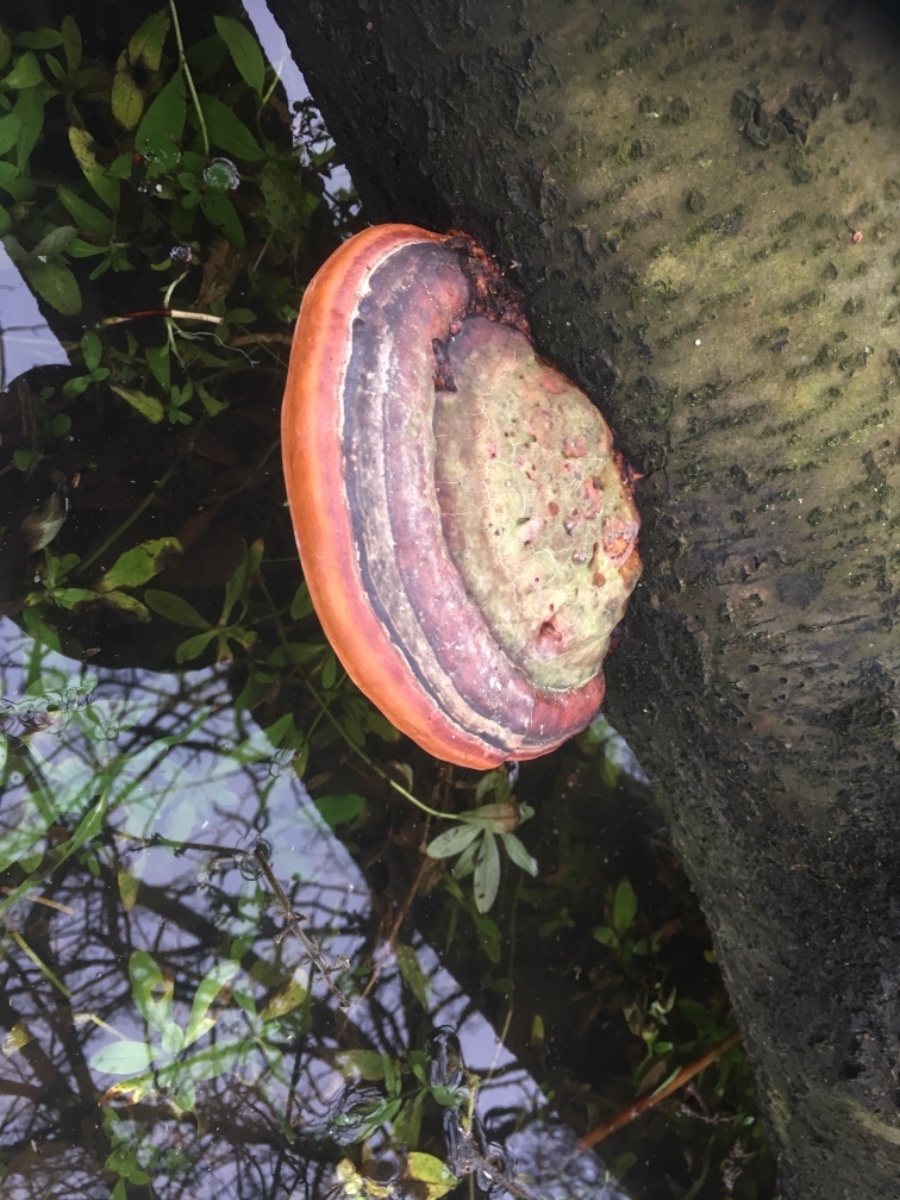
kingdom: Fungi
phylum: Basidiomycota
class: Agaricomycetes
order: Polyporales
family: Fomitopsidaceae
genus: Fomitopsis
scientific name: Fomitopsis pinicola
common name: randbæltet hovporesvamp
